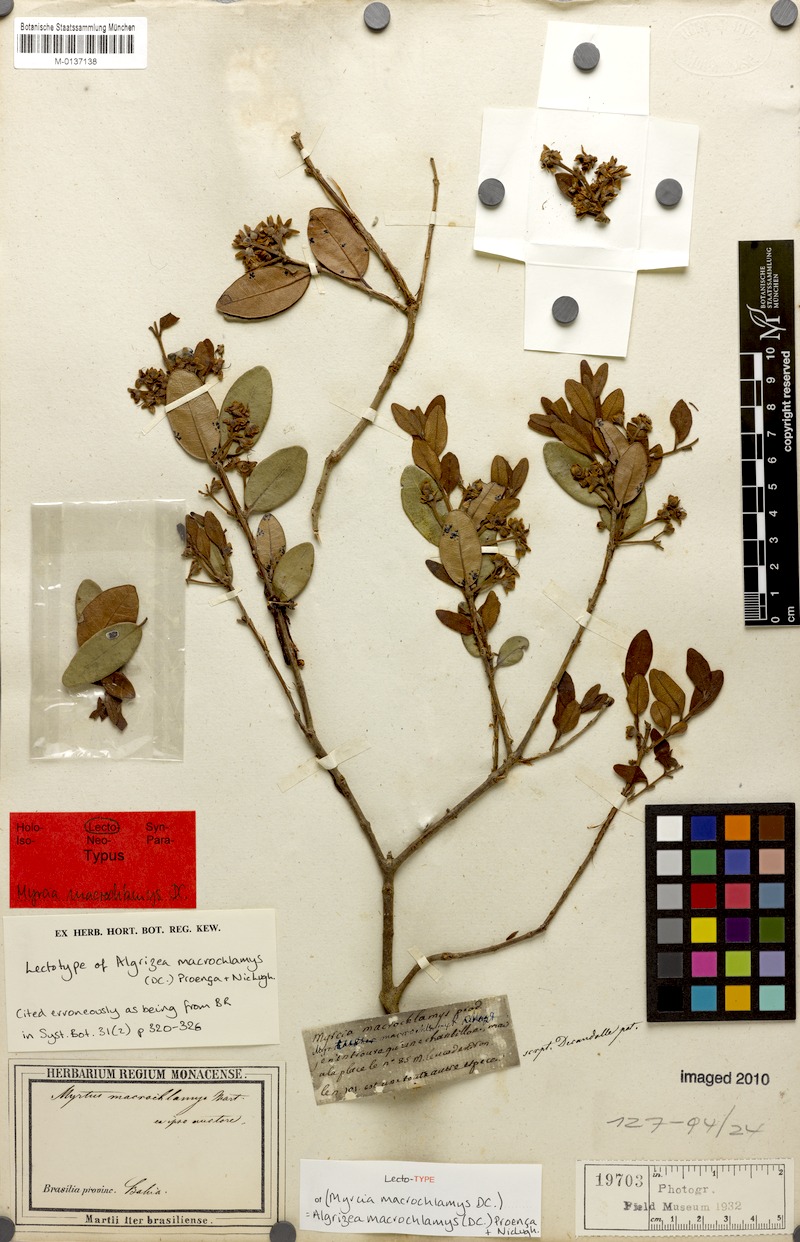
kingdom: Plantae
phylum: Tracheophyta
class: Magnoliopsida
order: Myrtales
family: Myrtaceae
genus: Algrizea
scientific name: Algrizea macrochlamys
